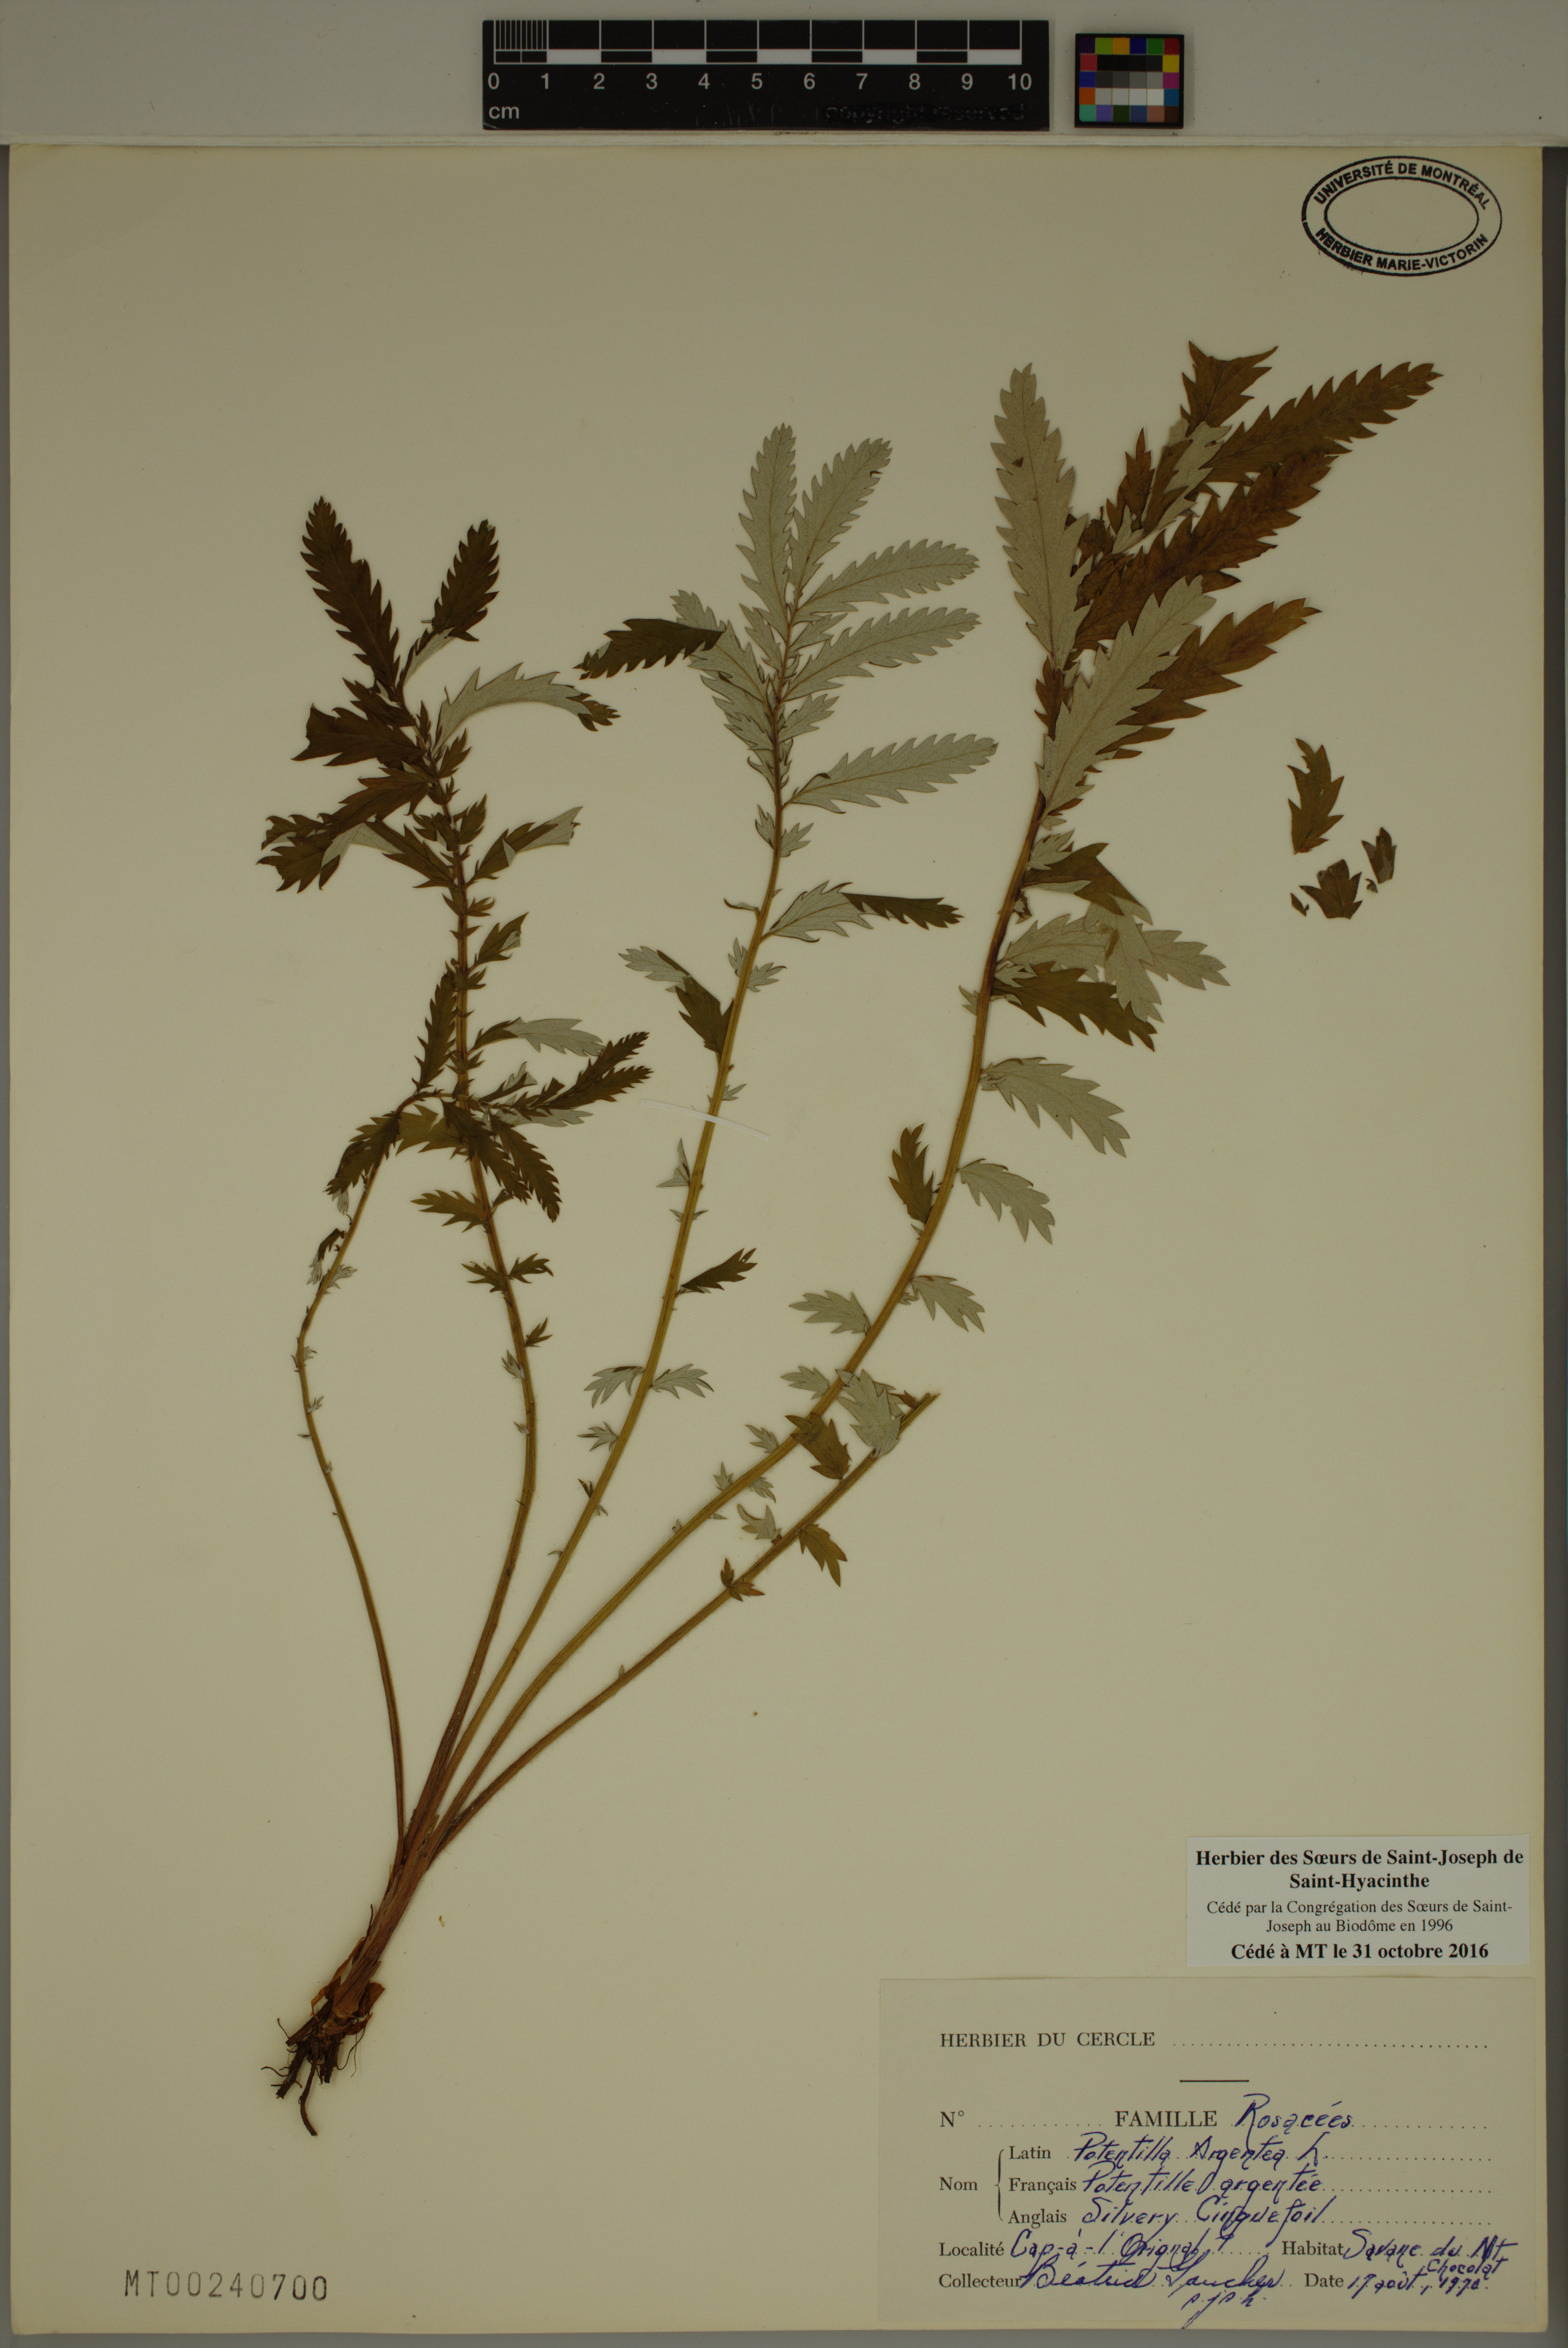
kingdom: Plantae
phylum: Tracheophyta
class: Magnoliopsida
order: Rosales
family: Rosaceae
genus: Potentilla
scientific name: Potentilla argentea
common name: Hoary cinquefoil
